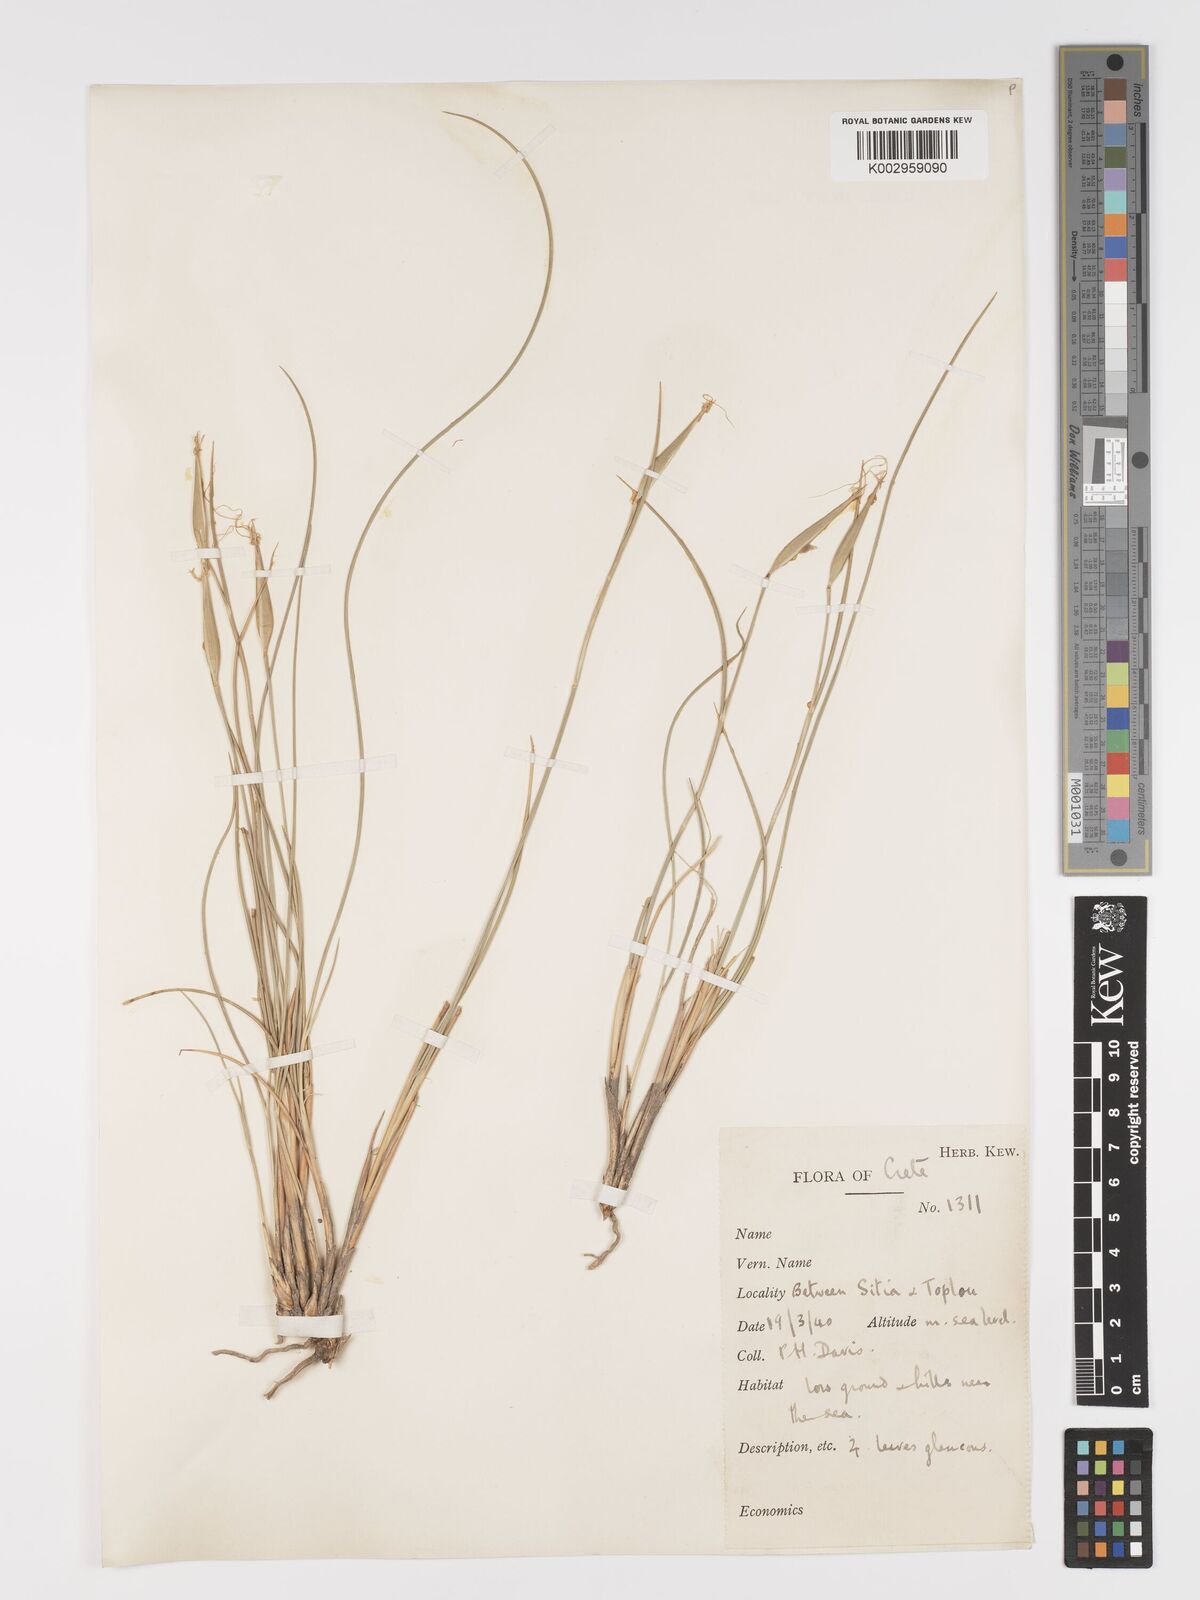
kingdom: Plantae
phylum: Tracheophyta
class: Liliopsida
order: Poales
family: Poaceae
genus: Lygeum
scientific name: Lygeum spartum
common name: Albardine
